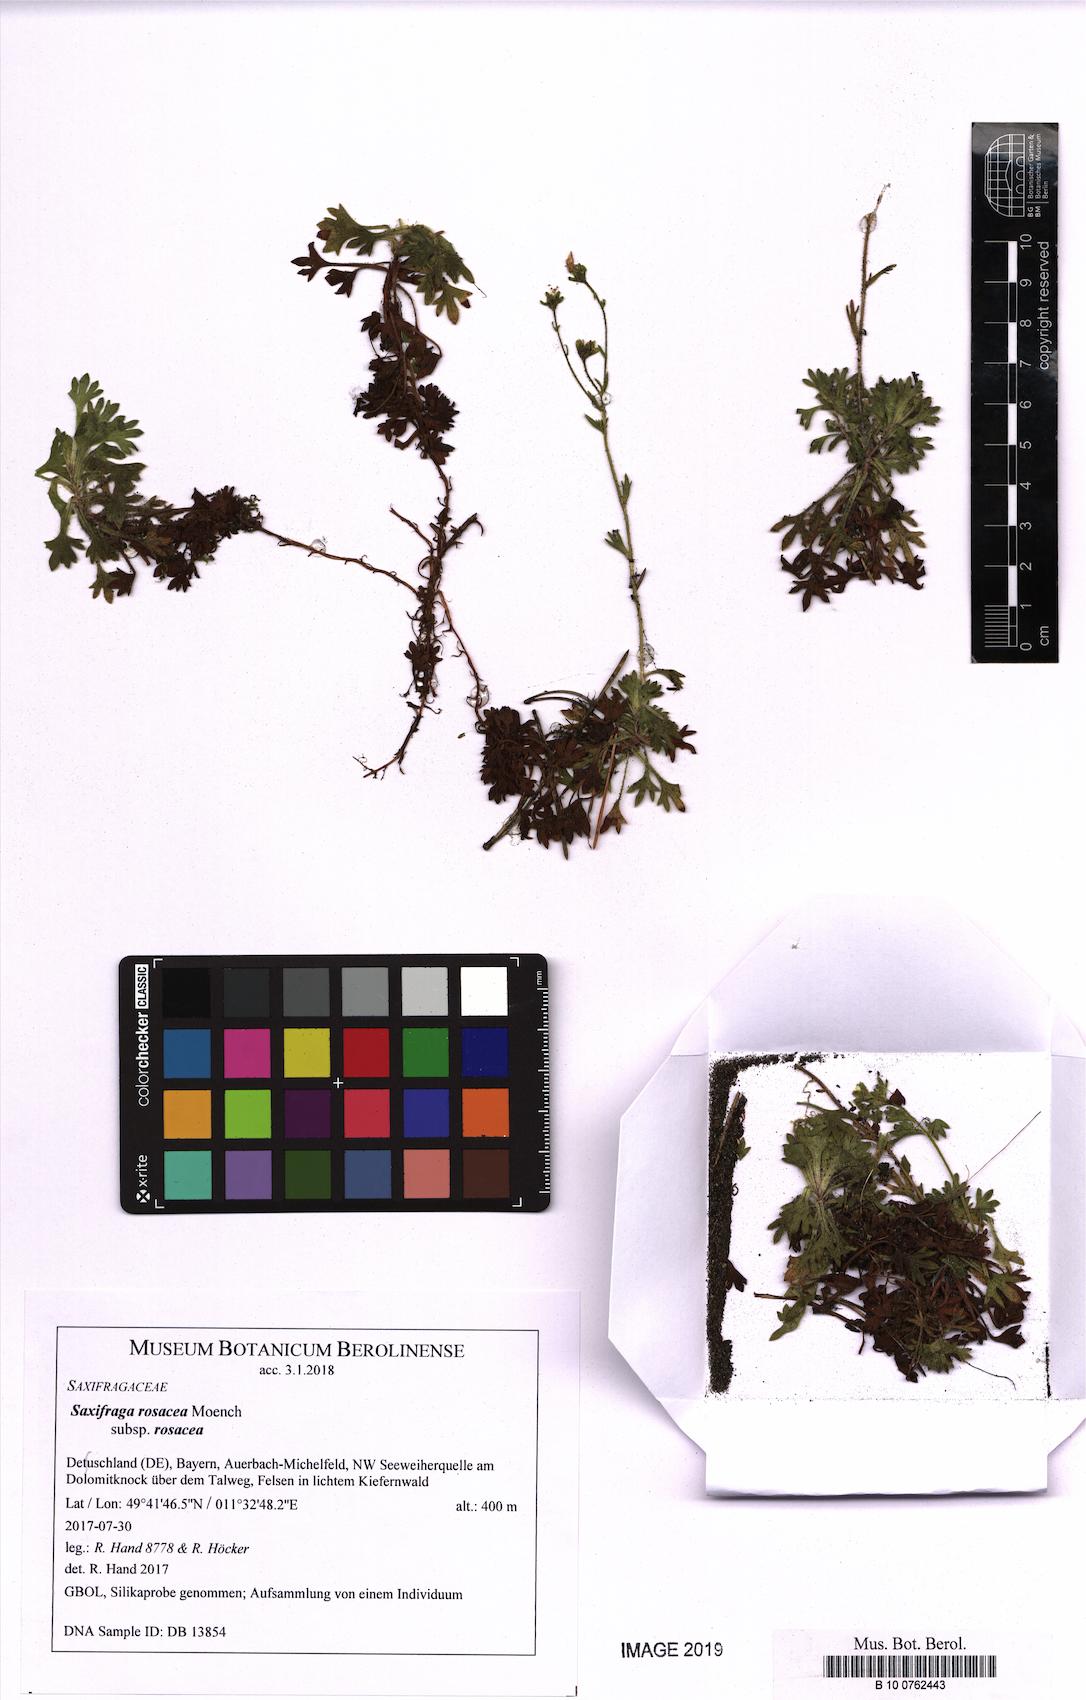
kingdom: Plantae
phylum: Tracheophyta
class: Magnoliopsida
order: Saxifragales
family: Saxifragaceae
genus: Saxifraga
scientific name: Saxifraga rosacea
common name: Irish saxifrage
